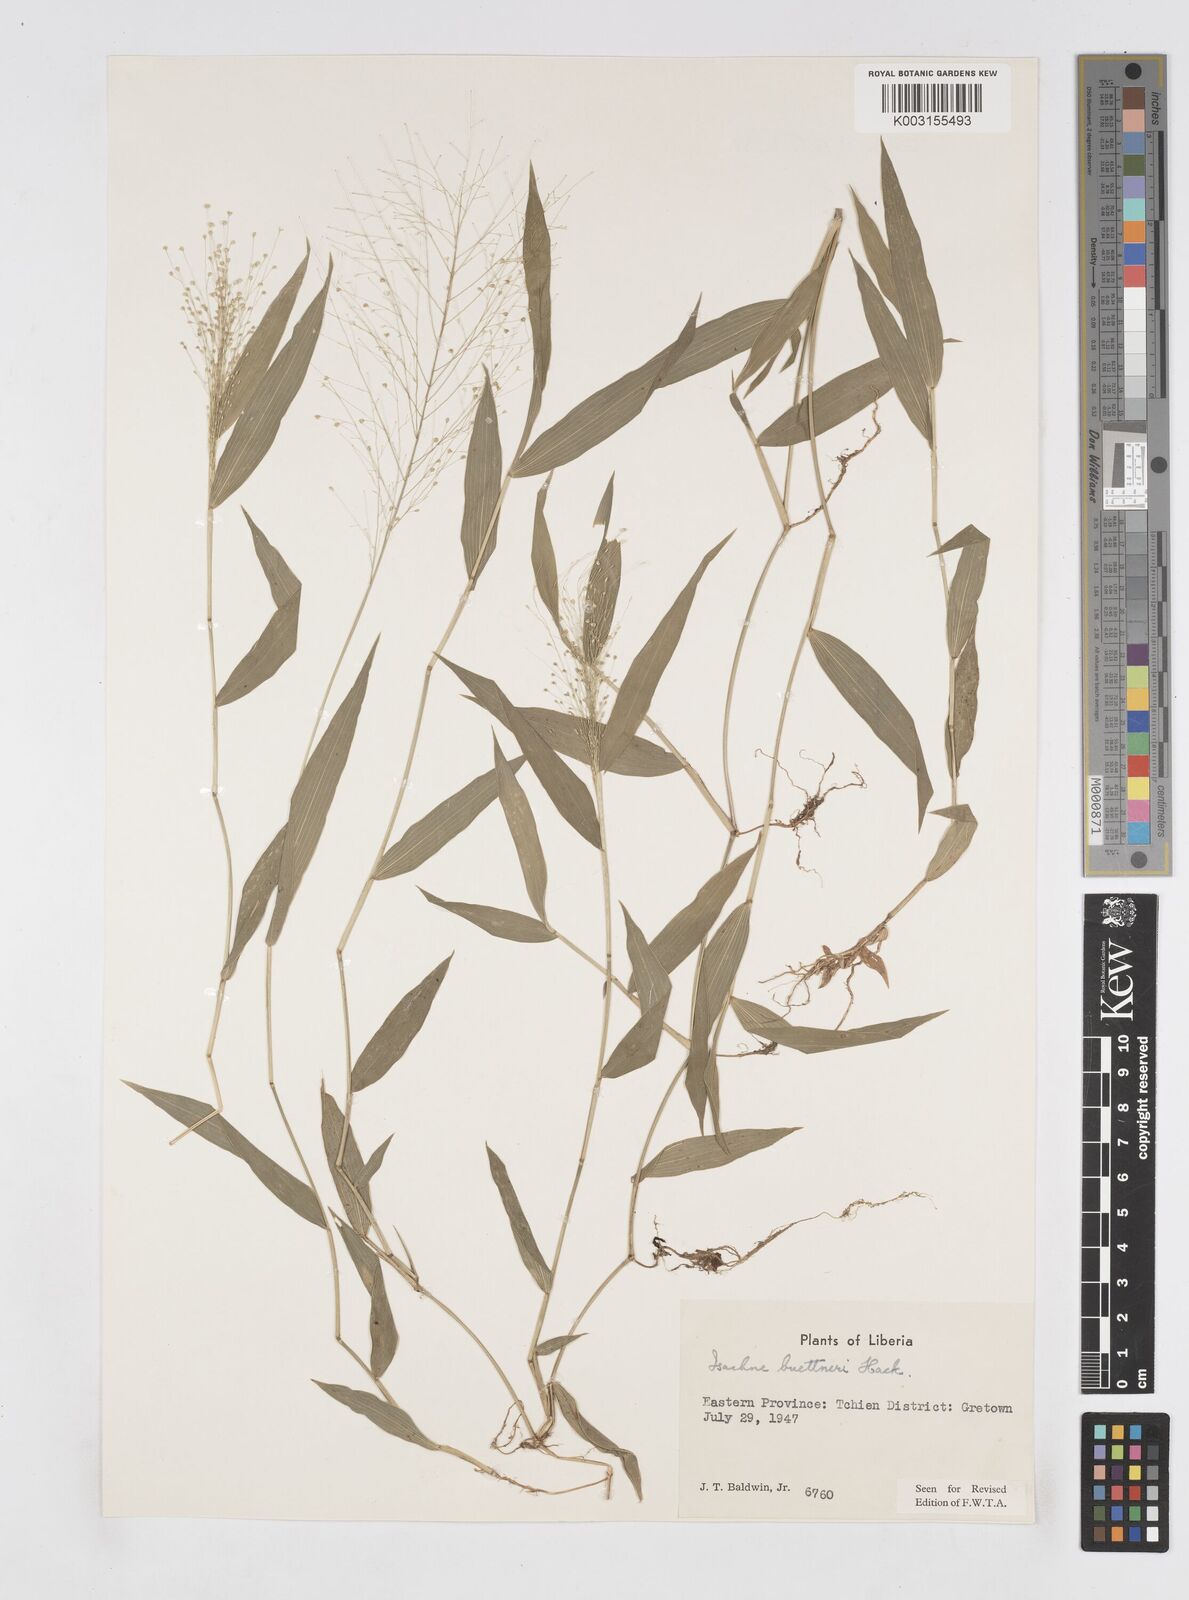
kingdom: Plantae
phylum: Tracheophyta
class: Liliopsida
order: Poales
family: Poaceae
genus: Isachne
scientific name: Isachne albens
